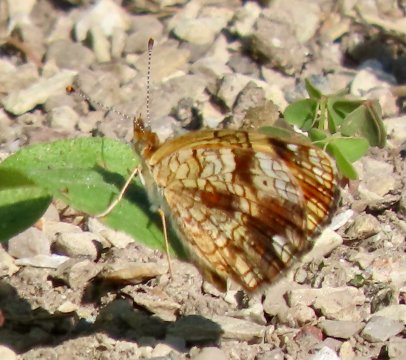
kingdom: Animalia
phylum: Arthropoda
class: Insecta
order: Lepidoptera
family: Nymphalidae
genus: Phyciodes
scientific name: Phyciodes tharos
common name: Pearl Crescent
